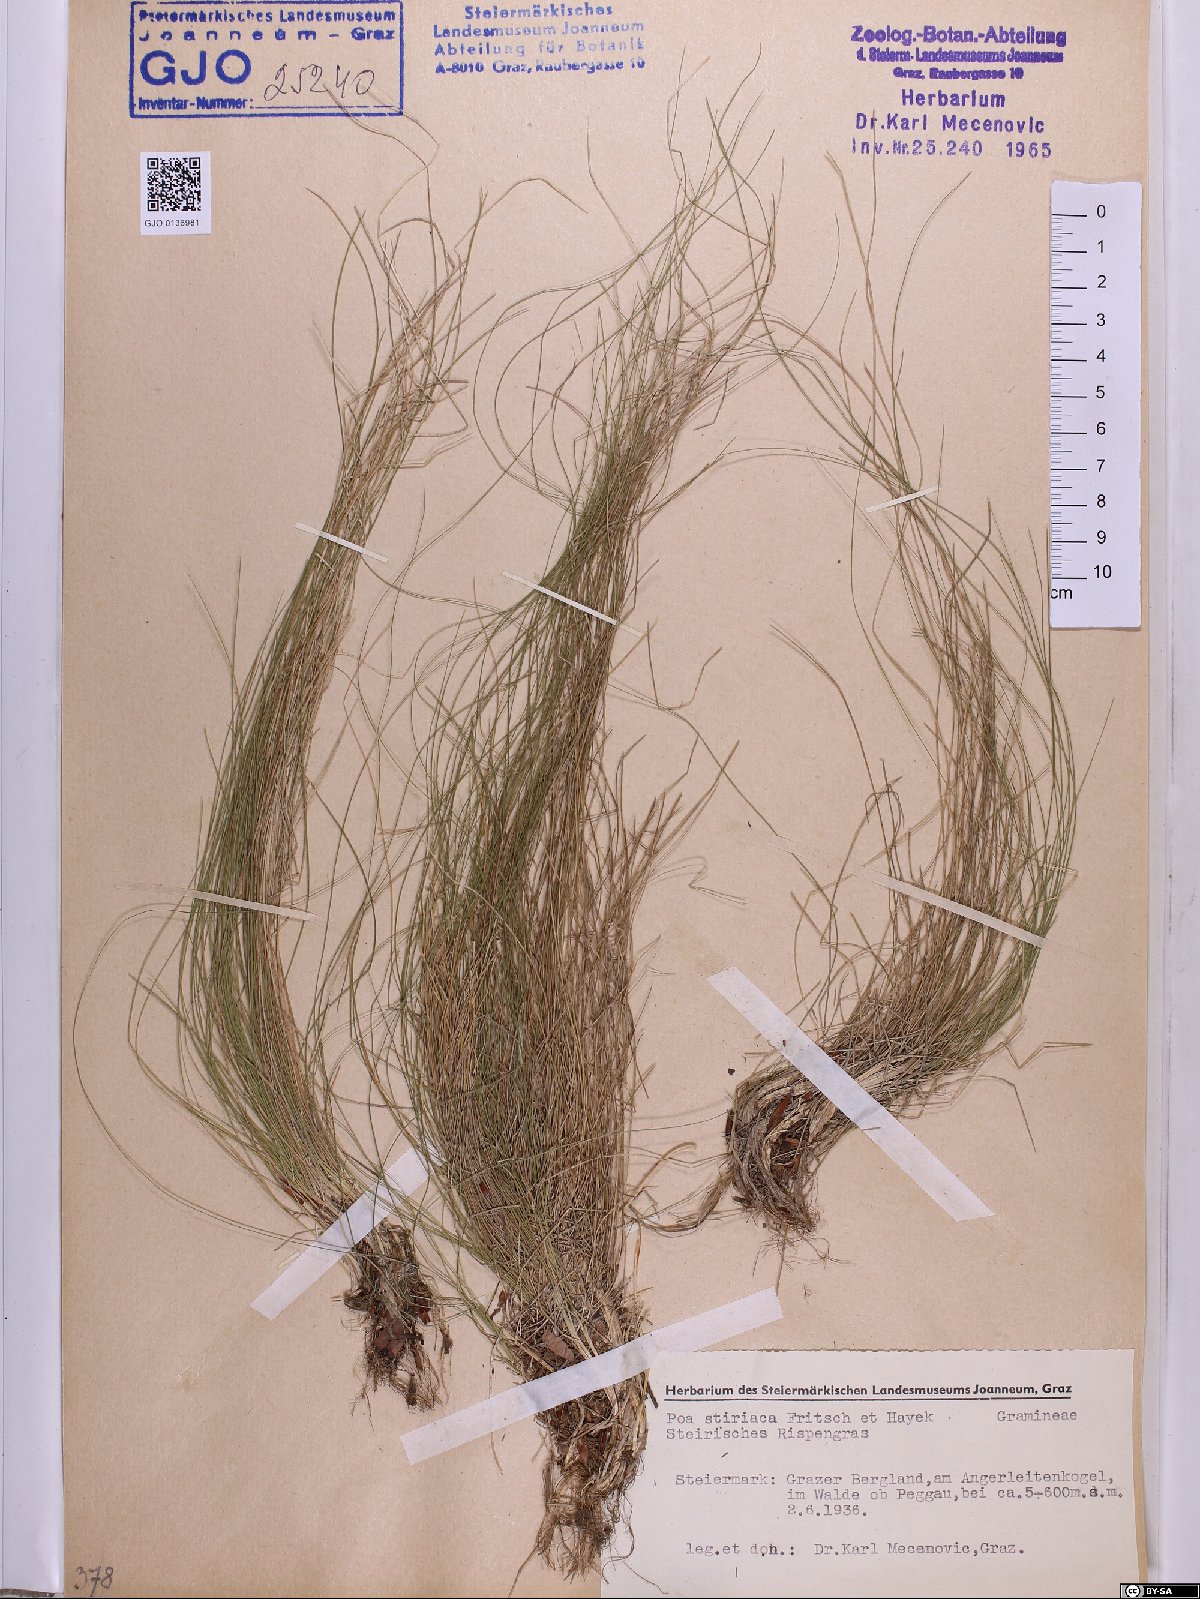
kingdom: Plantae
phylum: Tracheophyta
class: Liliopsida
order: Poales
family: Poaceae
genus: Poa
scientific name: Poa stiriaca
